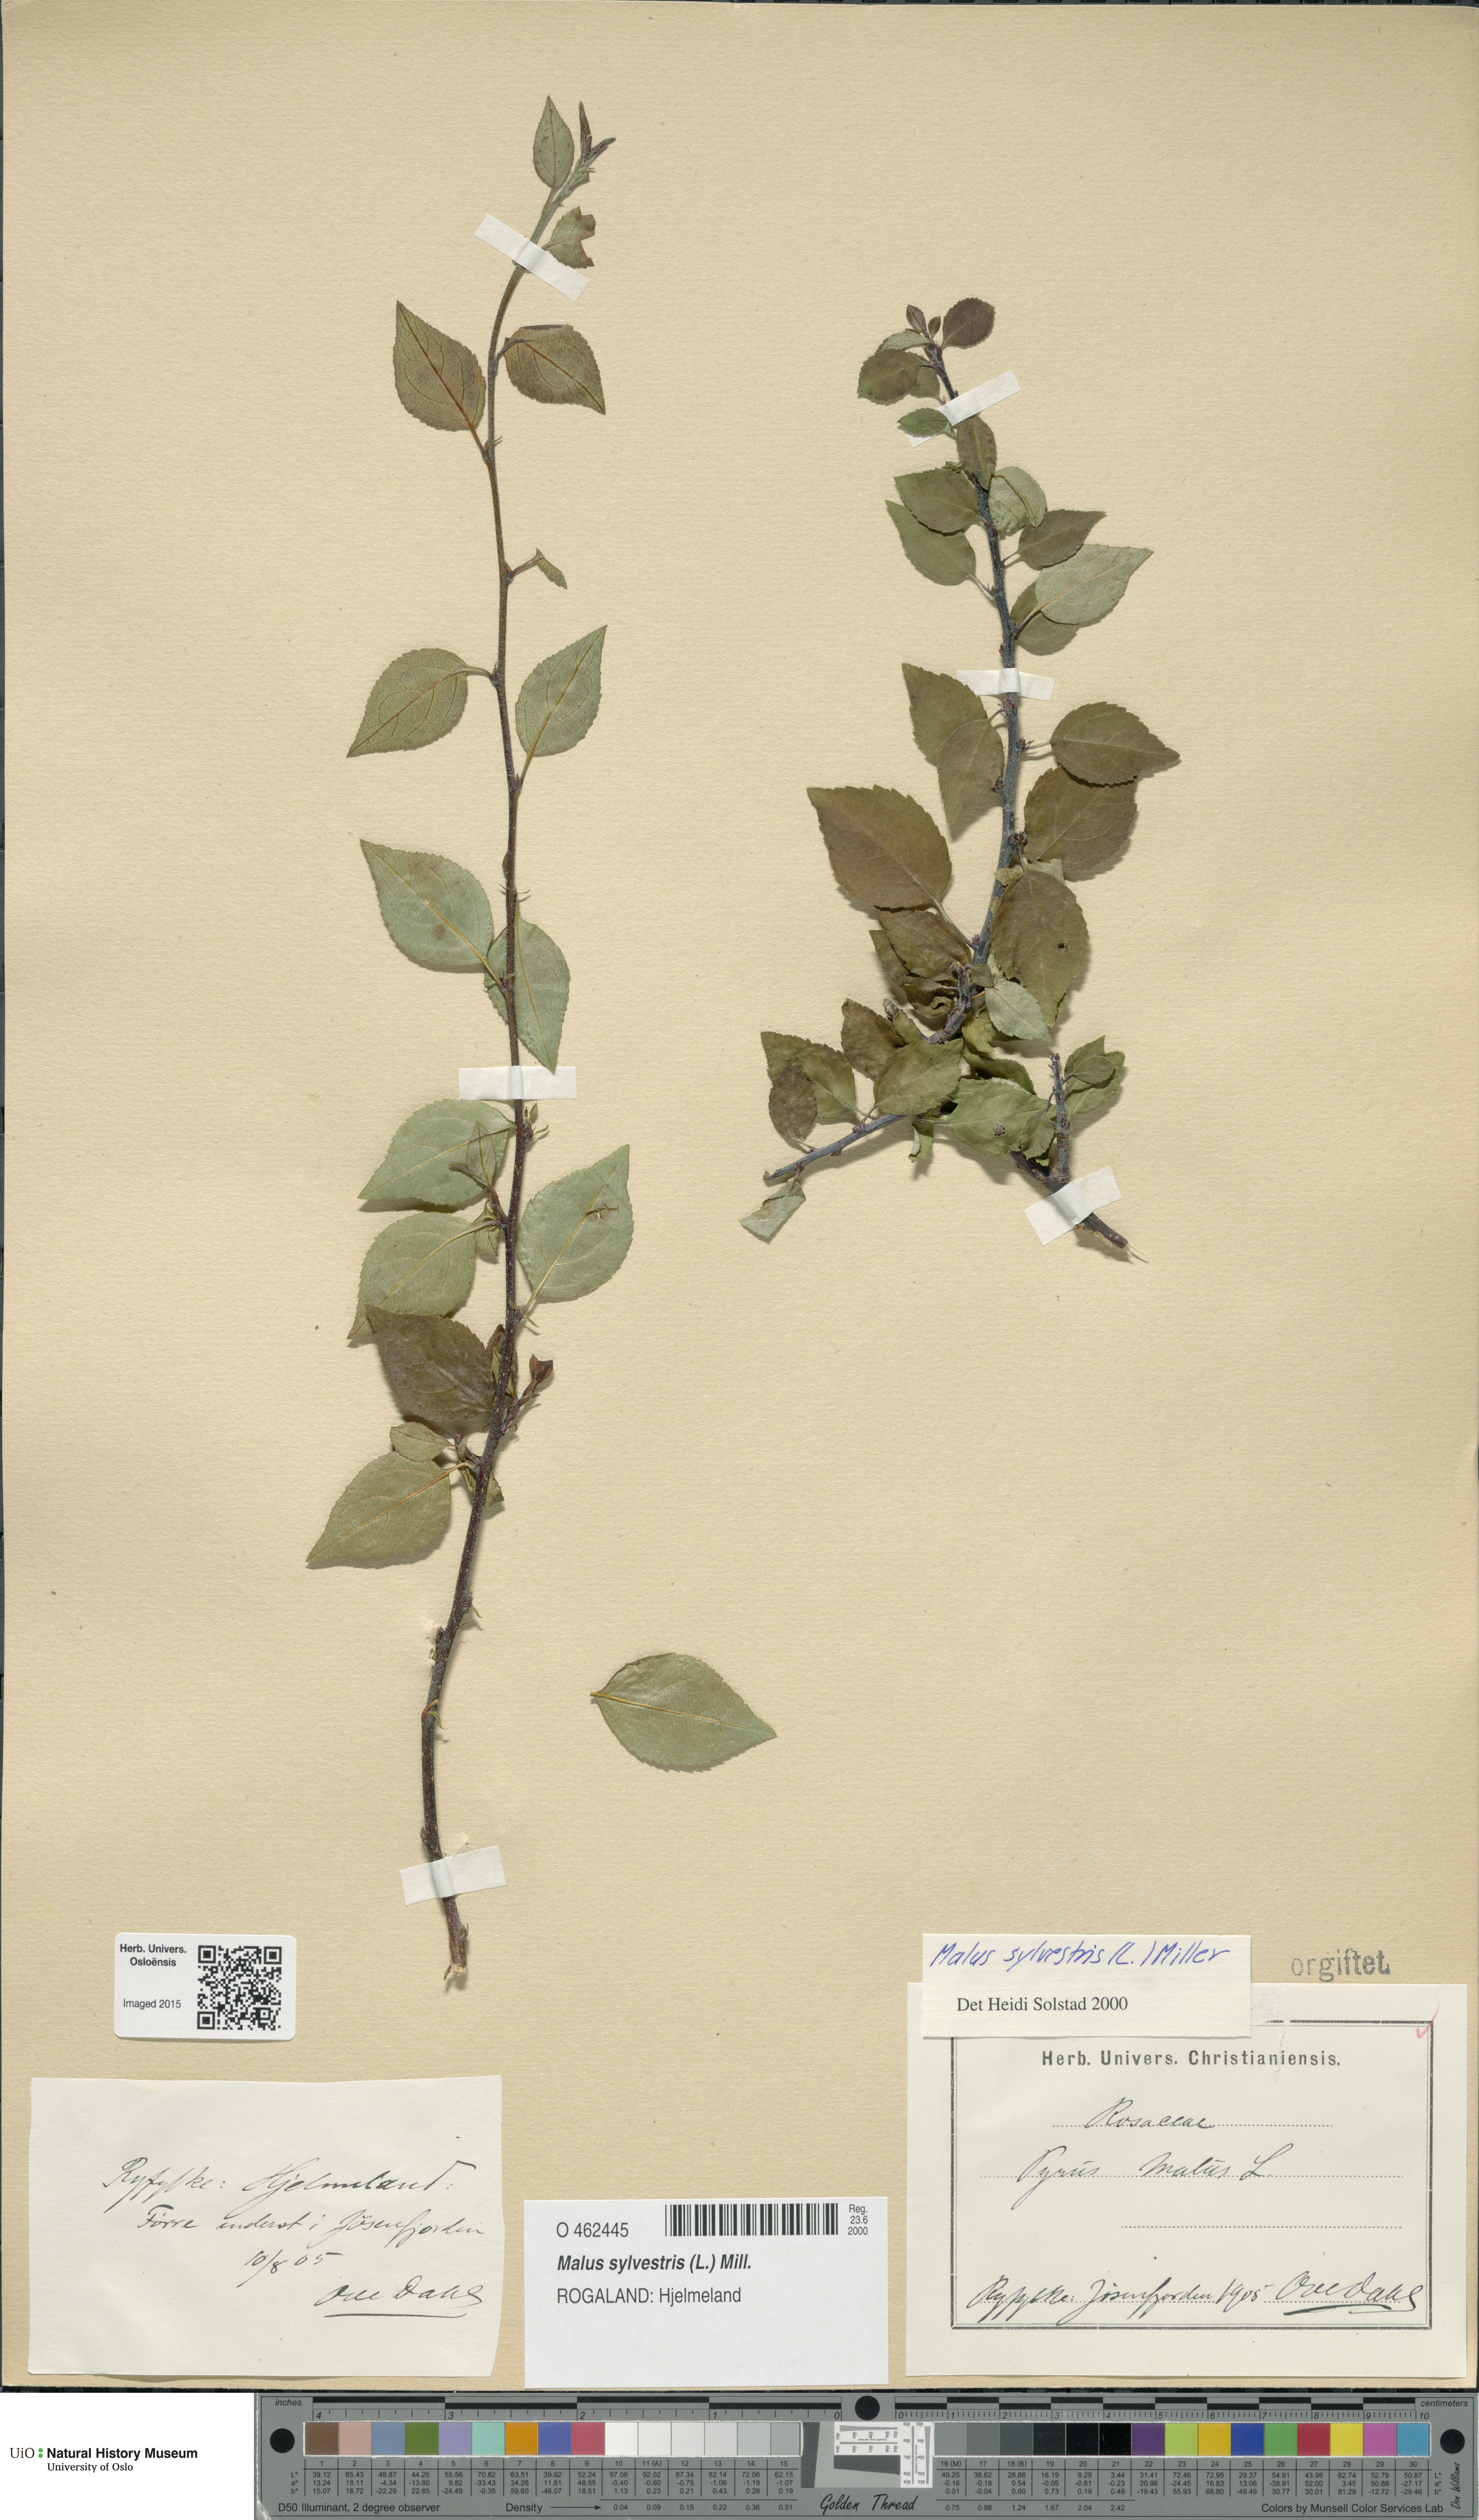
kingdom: Plantae
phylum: Tracheophyta
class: Magnoliopsida
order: Rosales
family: Rosaceae
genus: Malus
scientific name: Malus sylvestris
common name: Crab apple
